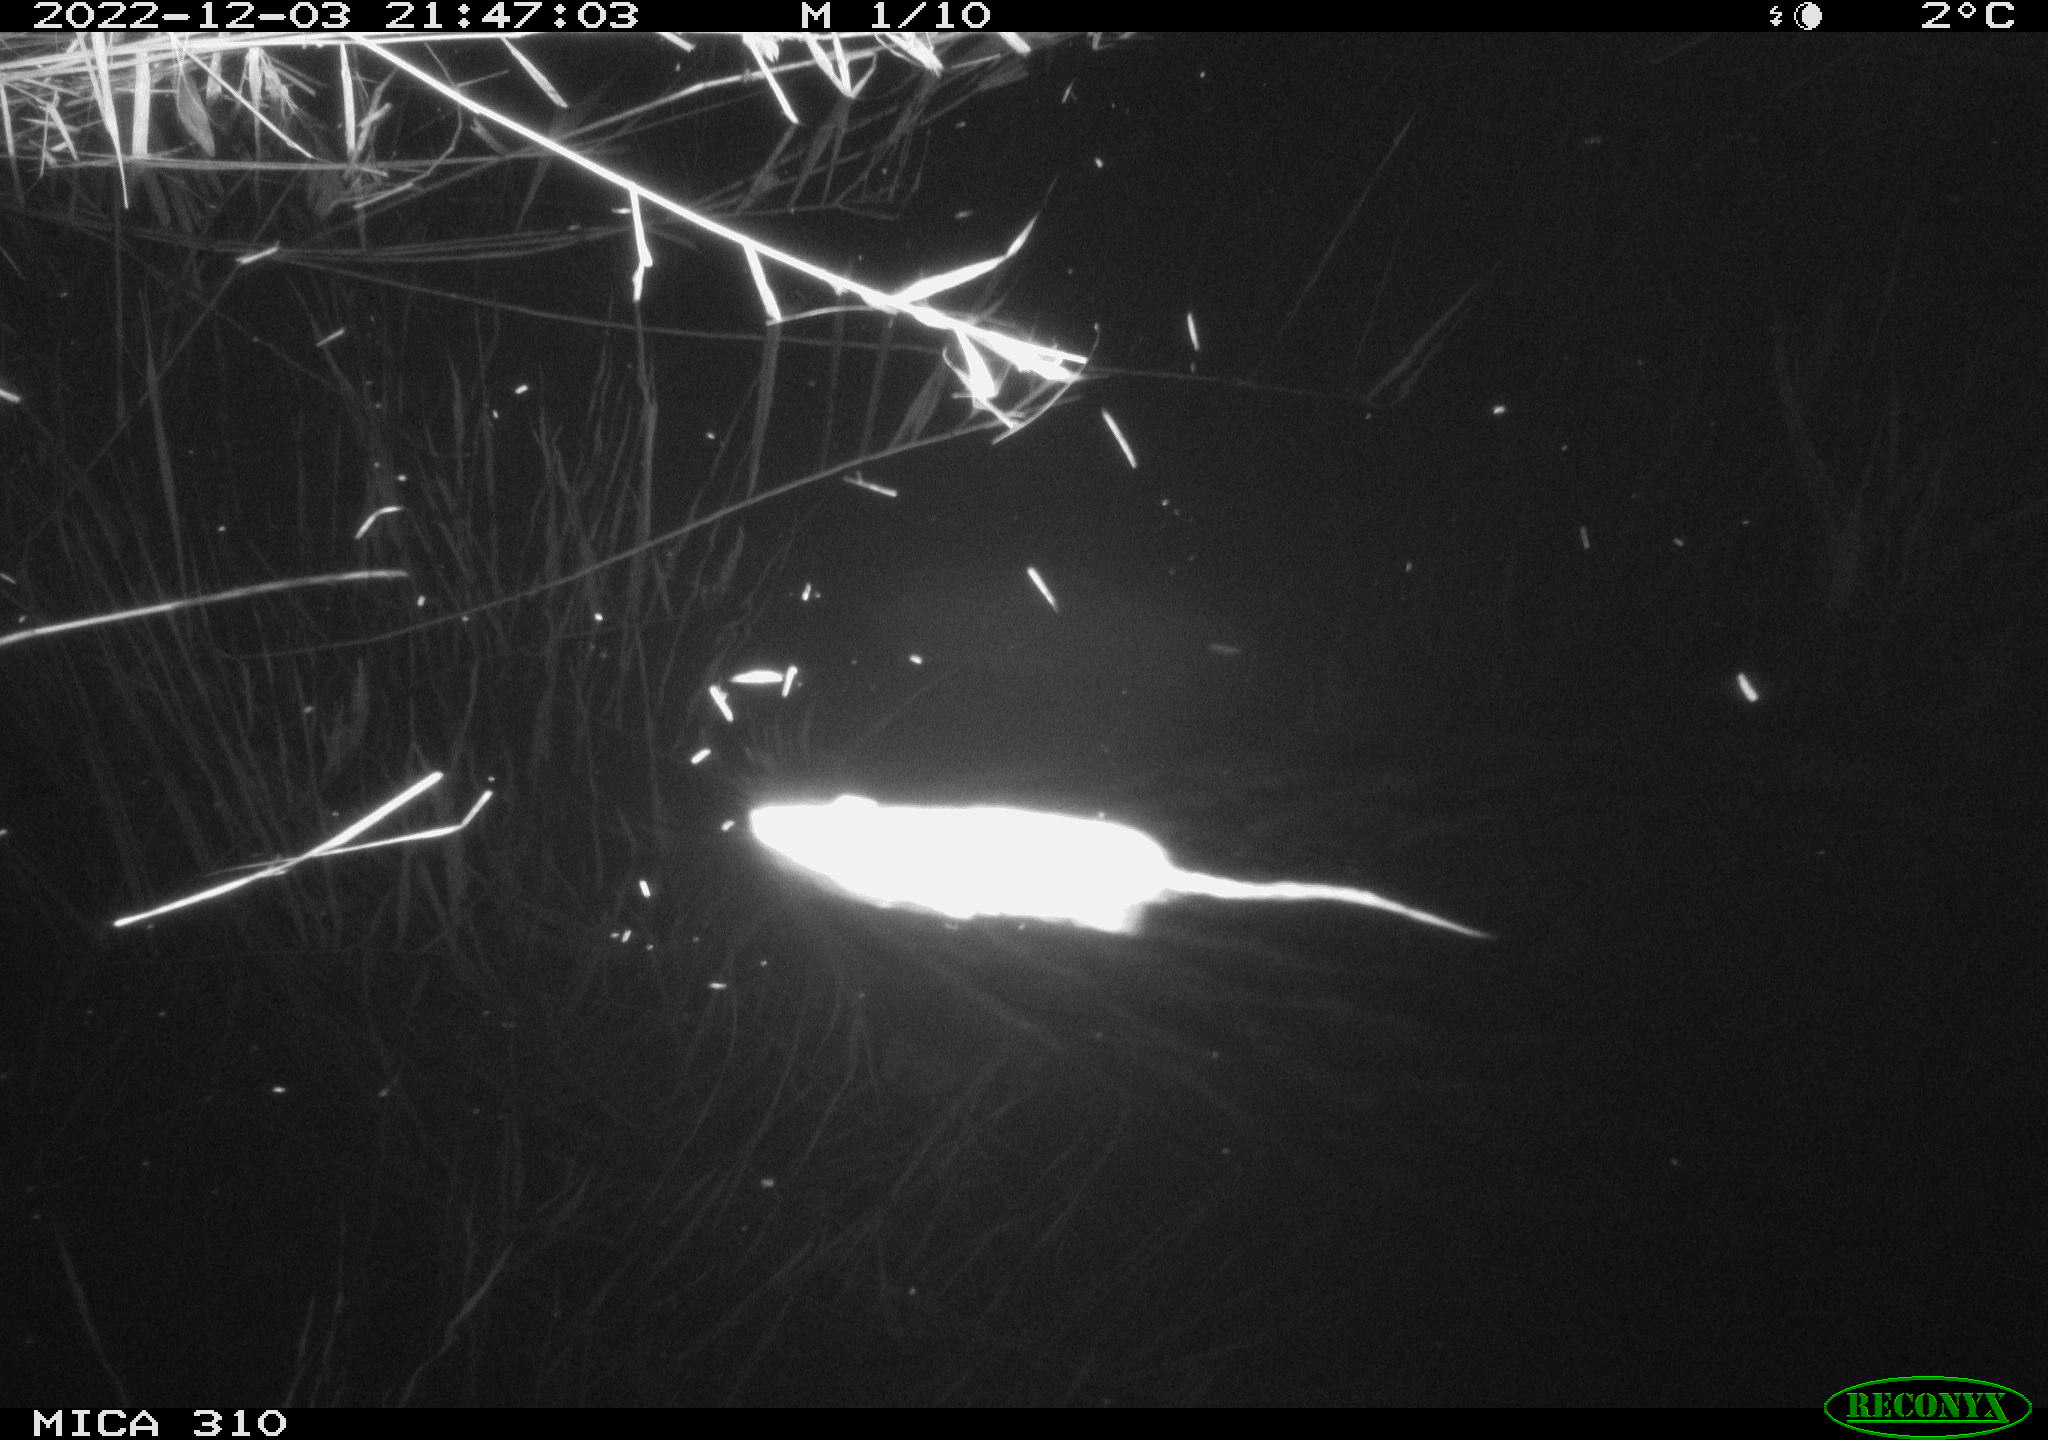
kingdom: Animalia
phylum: Chordata
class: Mammalia
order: Rodentia
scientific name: Rodentia
